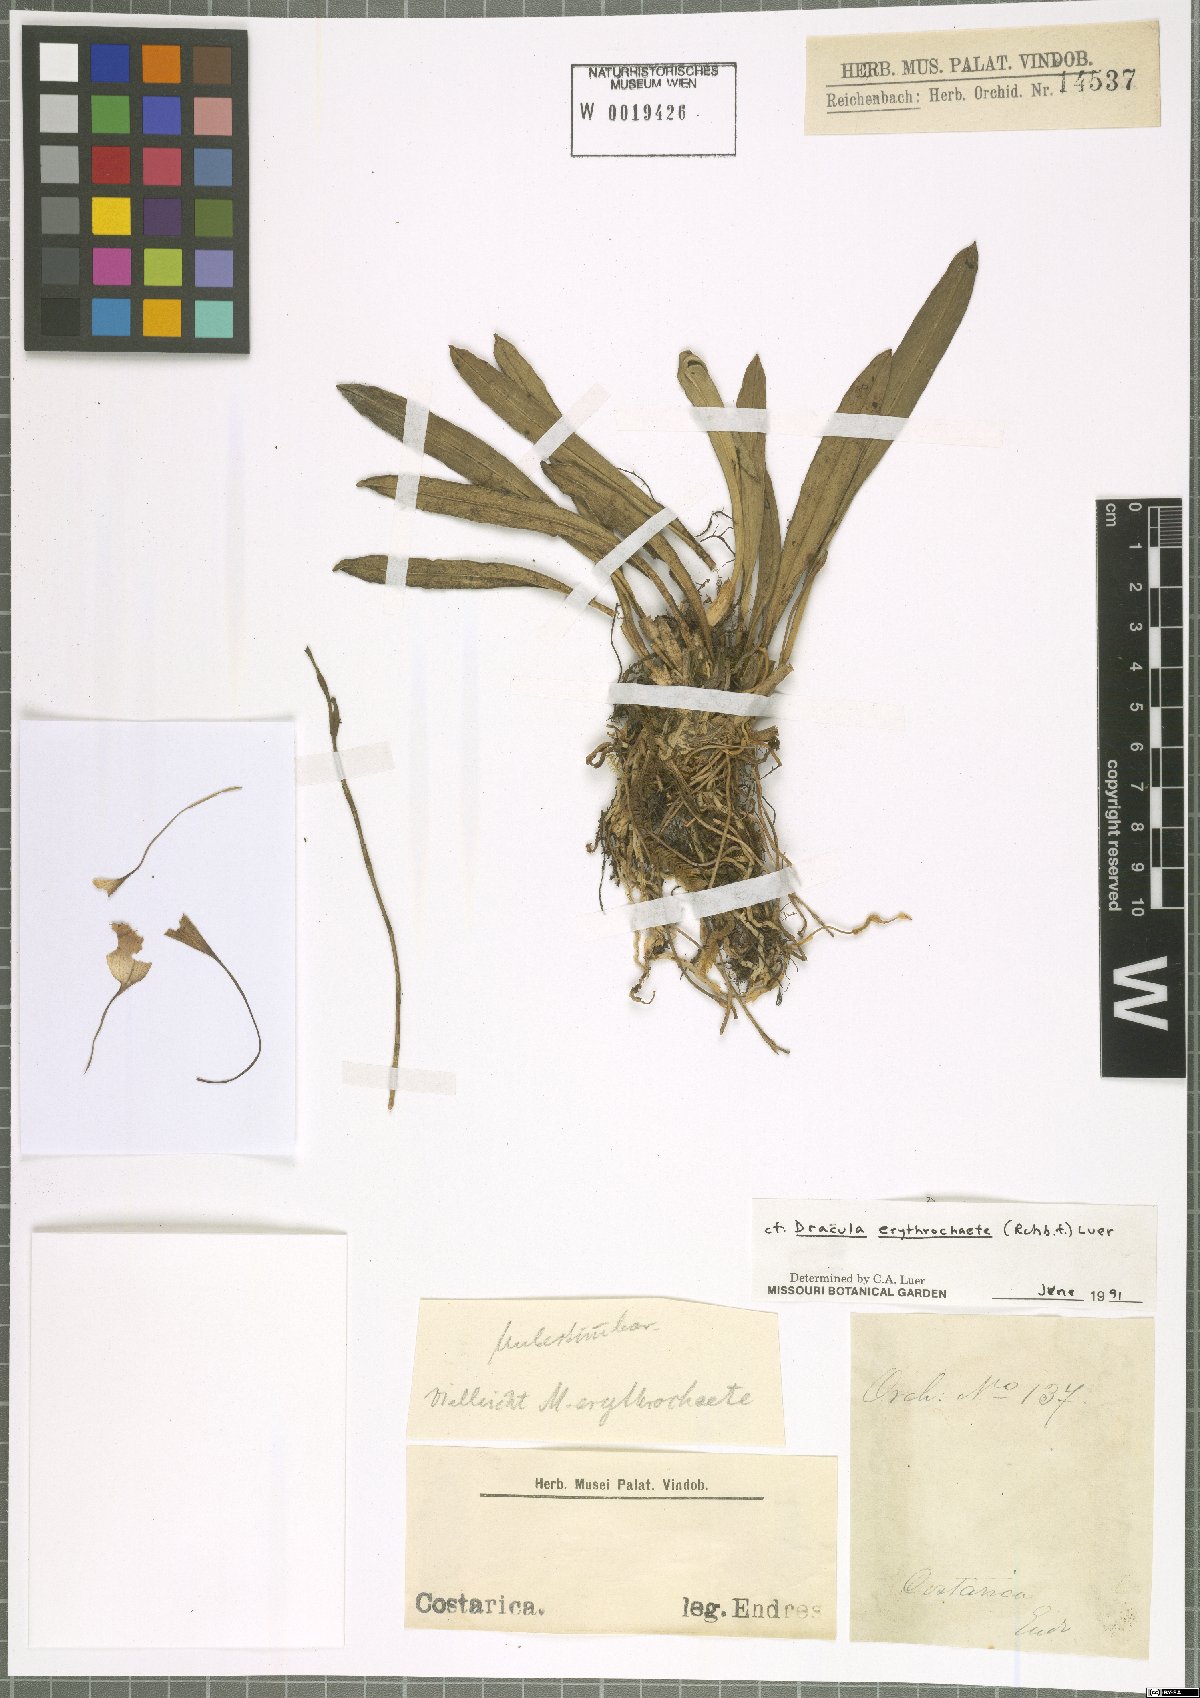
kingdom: Plantae
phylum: Tracheophyta
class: Liliopsida
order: Asparagales
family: Orchidaceae
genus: Dracula
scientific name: Dracula erythrochaete
